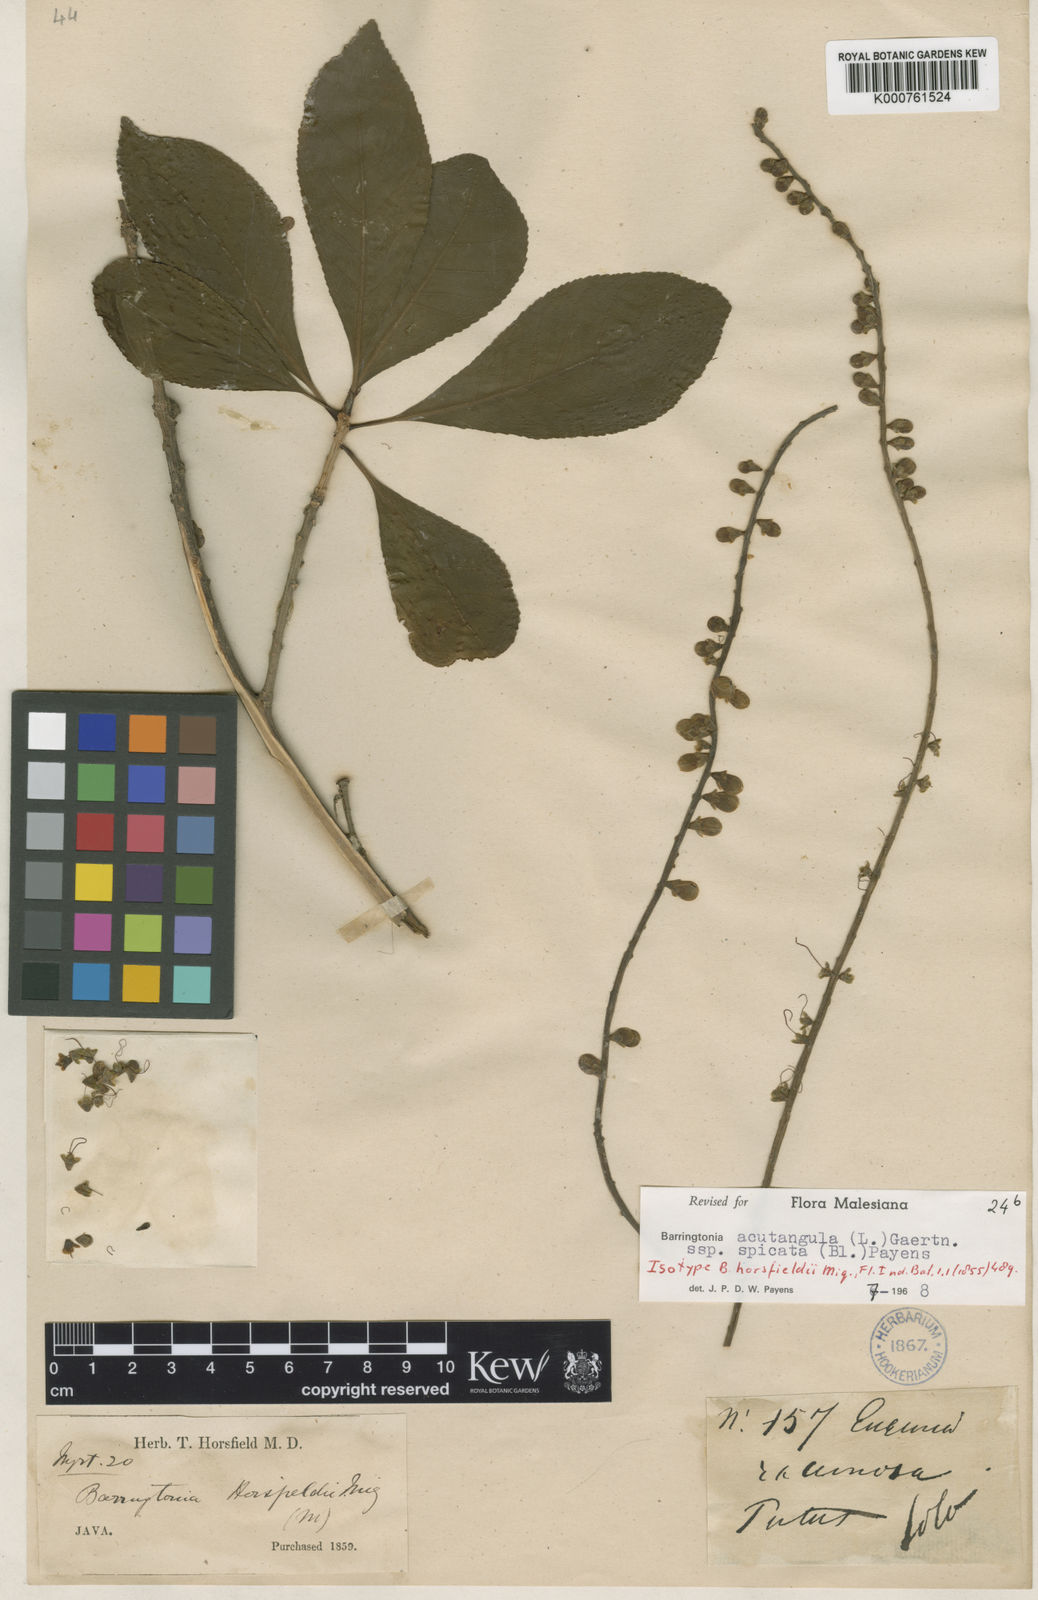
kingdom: Plantae
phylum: Tracheophyta
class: Magnoliopsida
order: Ericales
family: Lecythidaceae
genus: Barringtonia
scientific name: Barringtonia acutangula
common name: Freshwater mangrove
